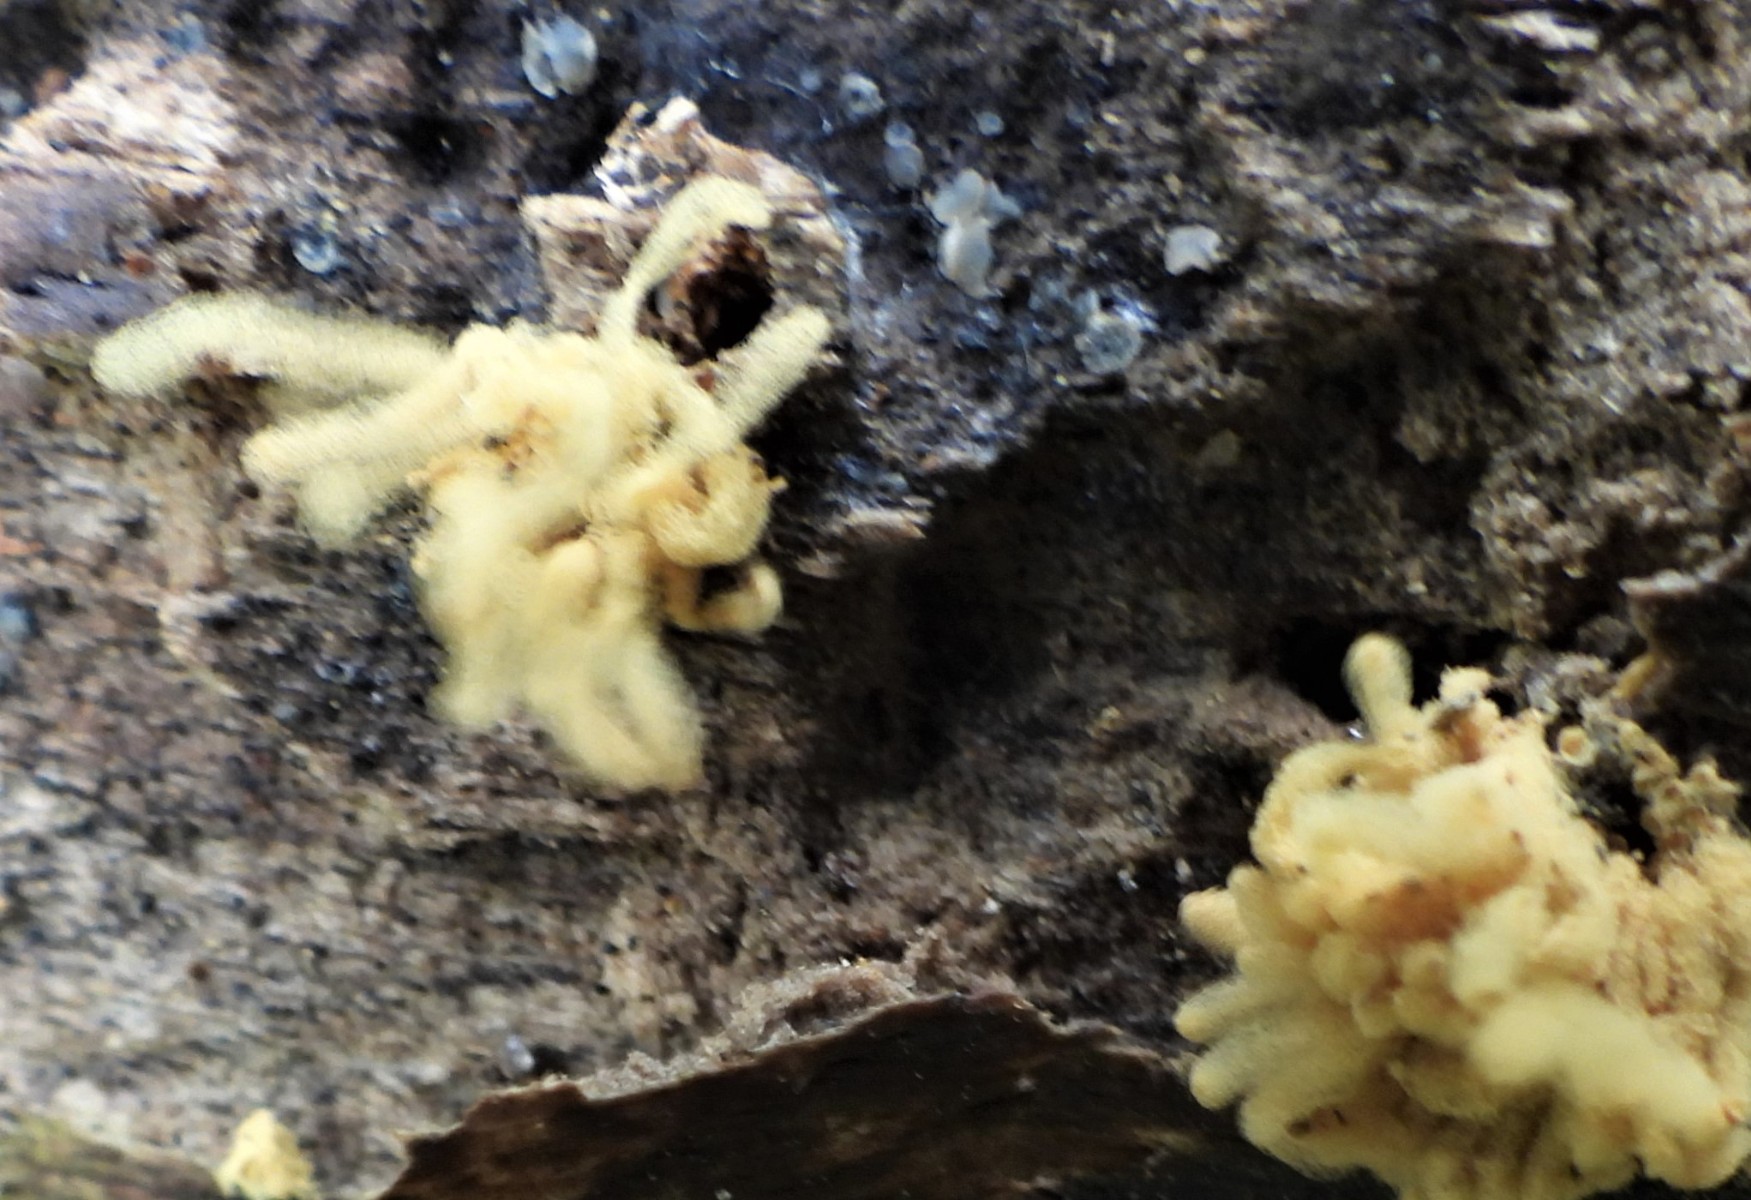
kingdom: Protozoa
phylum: Mycetozoa
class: Myxomycetes
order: Trichiales
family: Arcyriaceae
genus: Arcyria
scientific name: Arcyria obvelata
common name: okkergul skålsvøb
